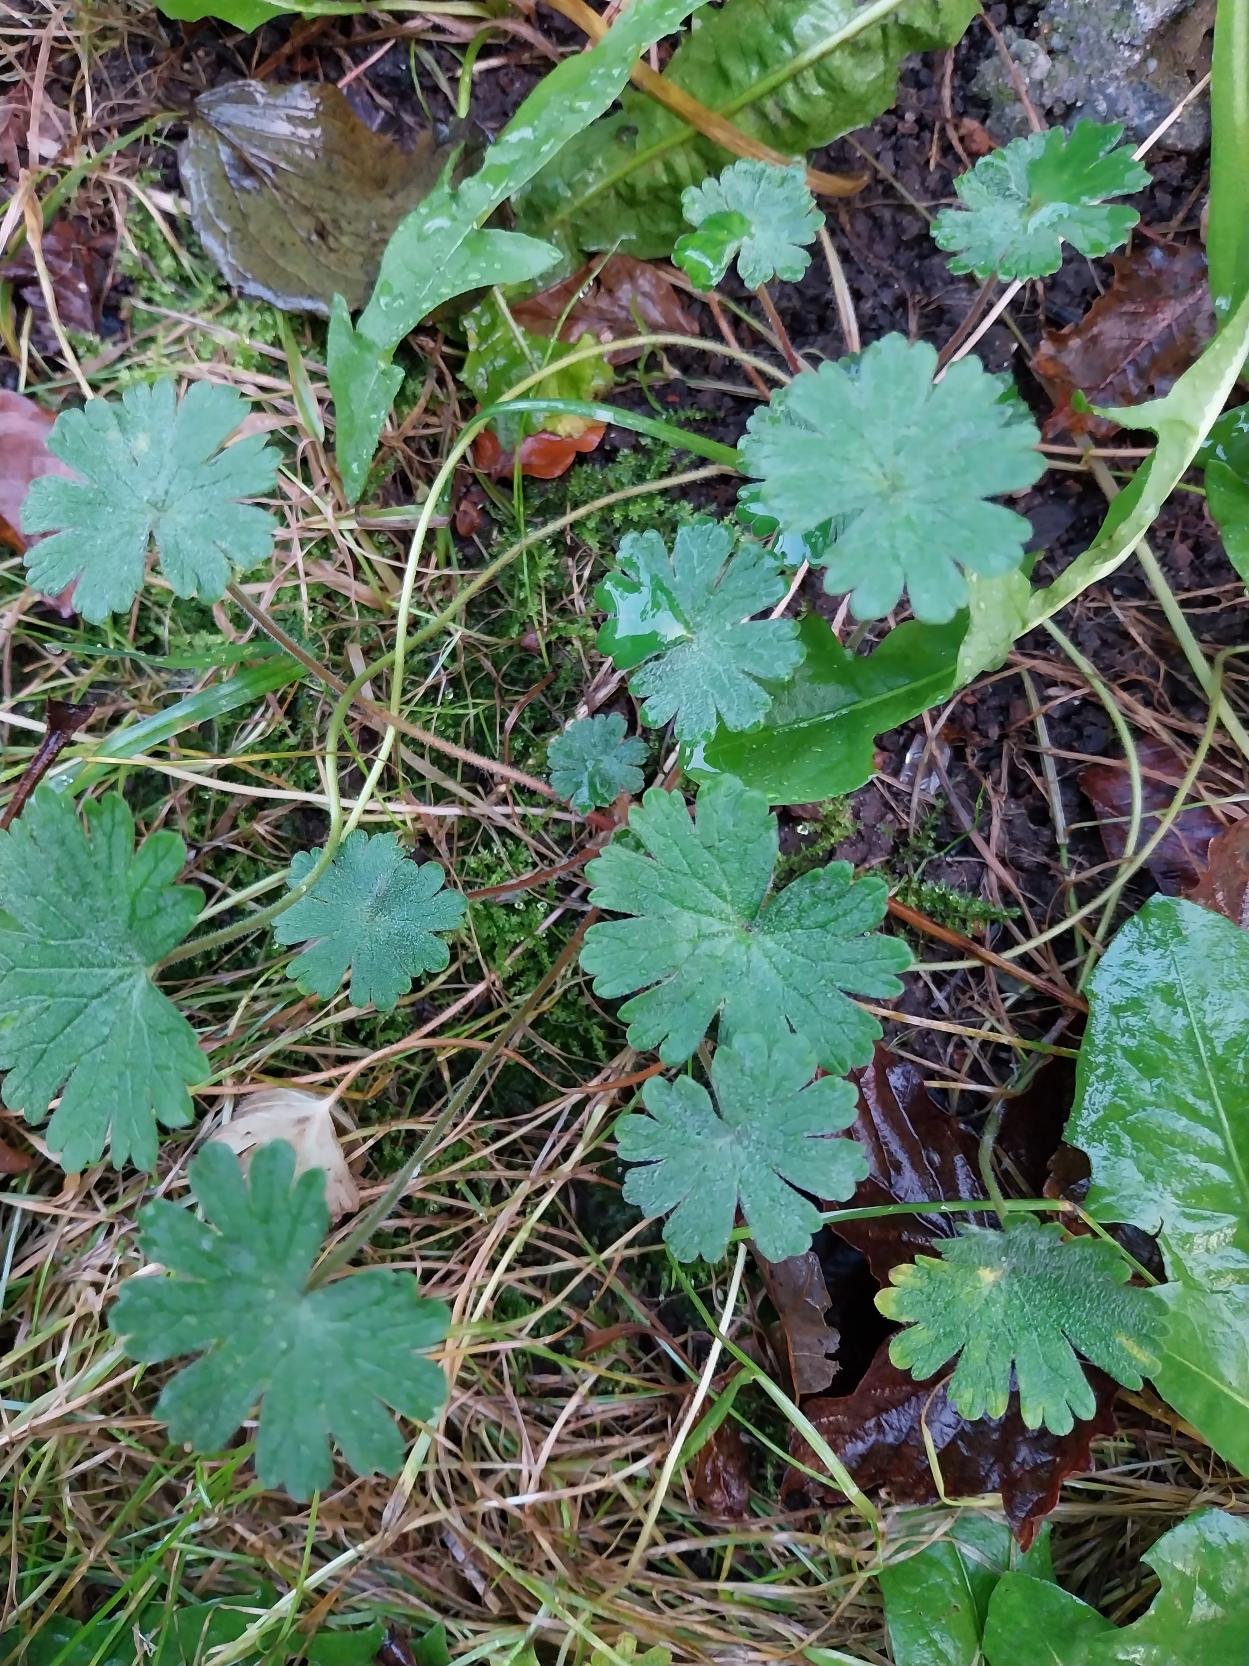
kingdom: Plantae
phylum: Tracheophyta
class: Magnoliopsida
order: Geraniales
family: Geraniaceae
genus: Geranium
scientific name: Geranium pusillum
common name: Liden storkenæb
